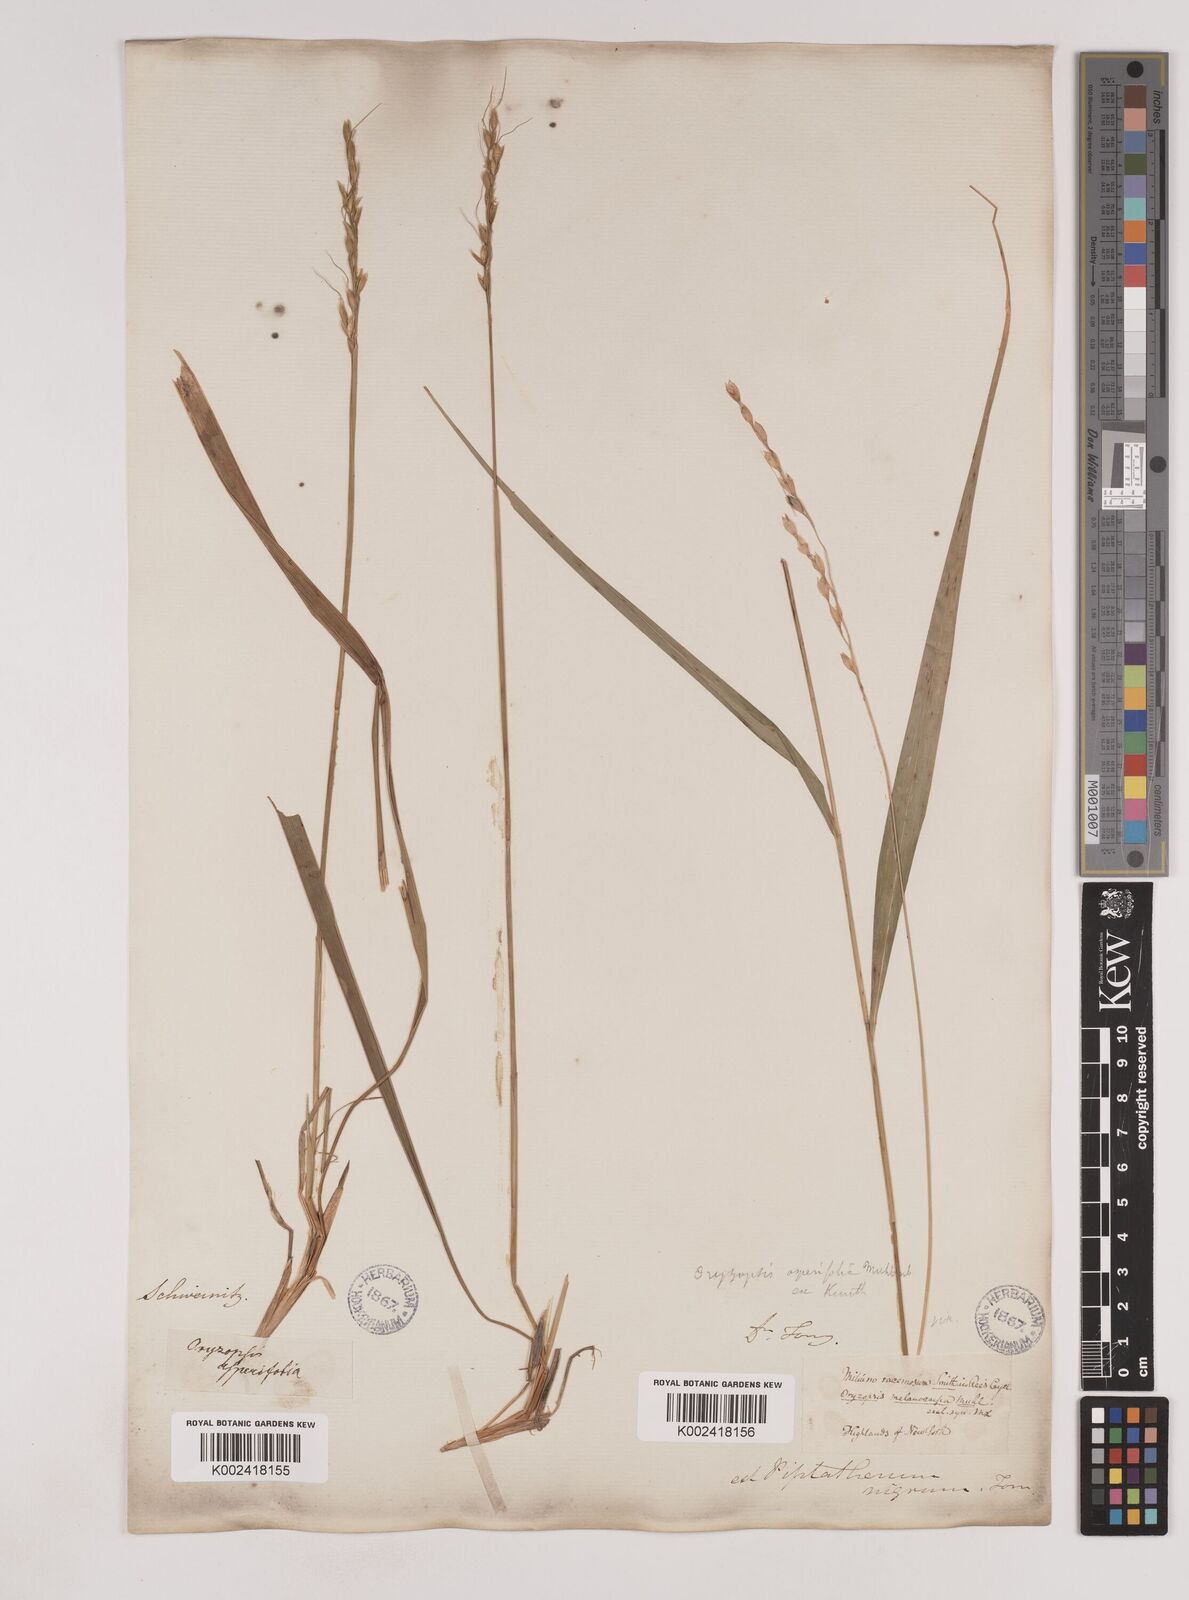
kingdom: Plantae
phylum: Tracheophyta
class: Liliopsida
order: Poales
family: Poaceae
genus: Oryzopsis
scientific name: Oryzopsis asperifolia
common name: Rough-leaved mountain rice
